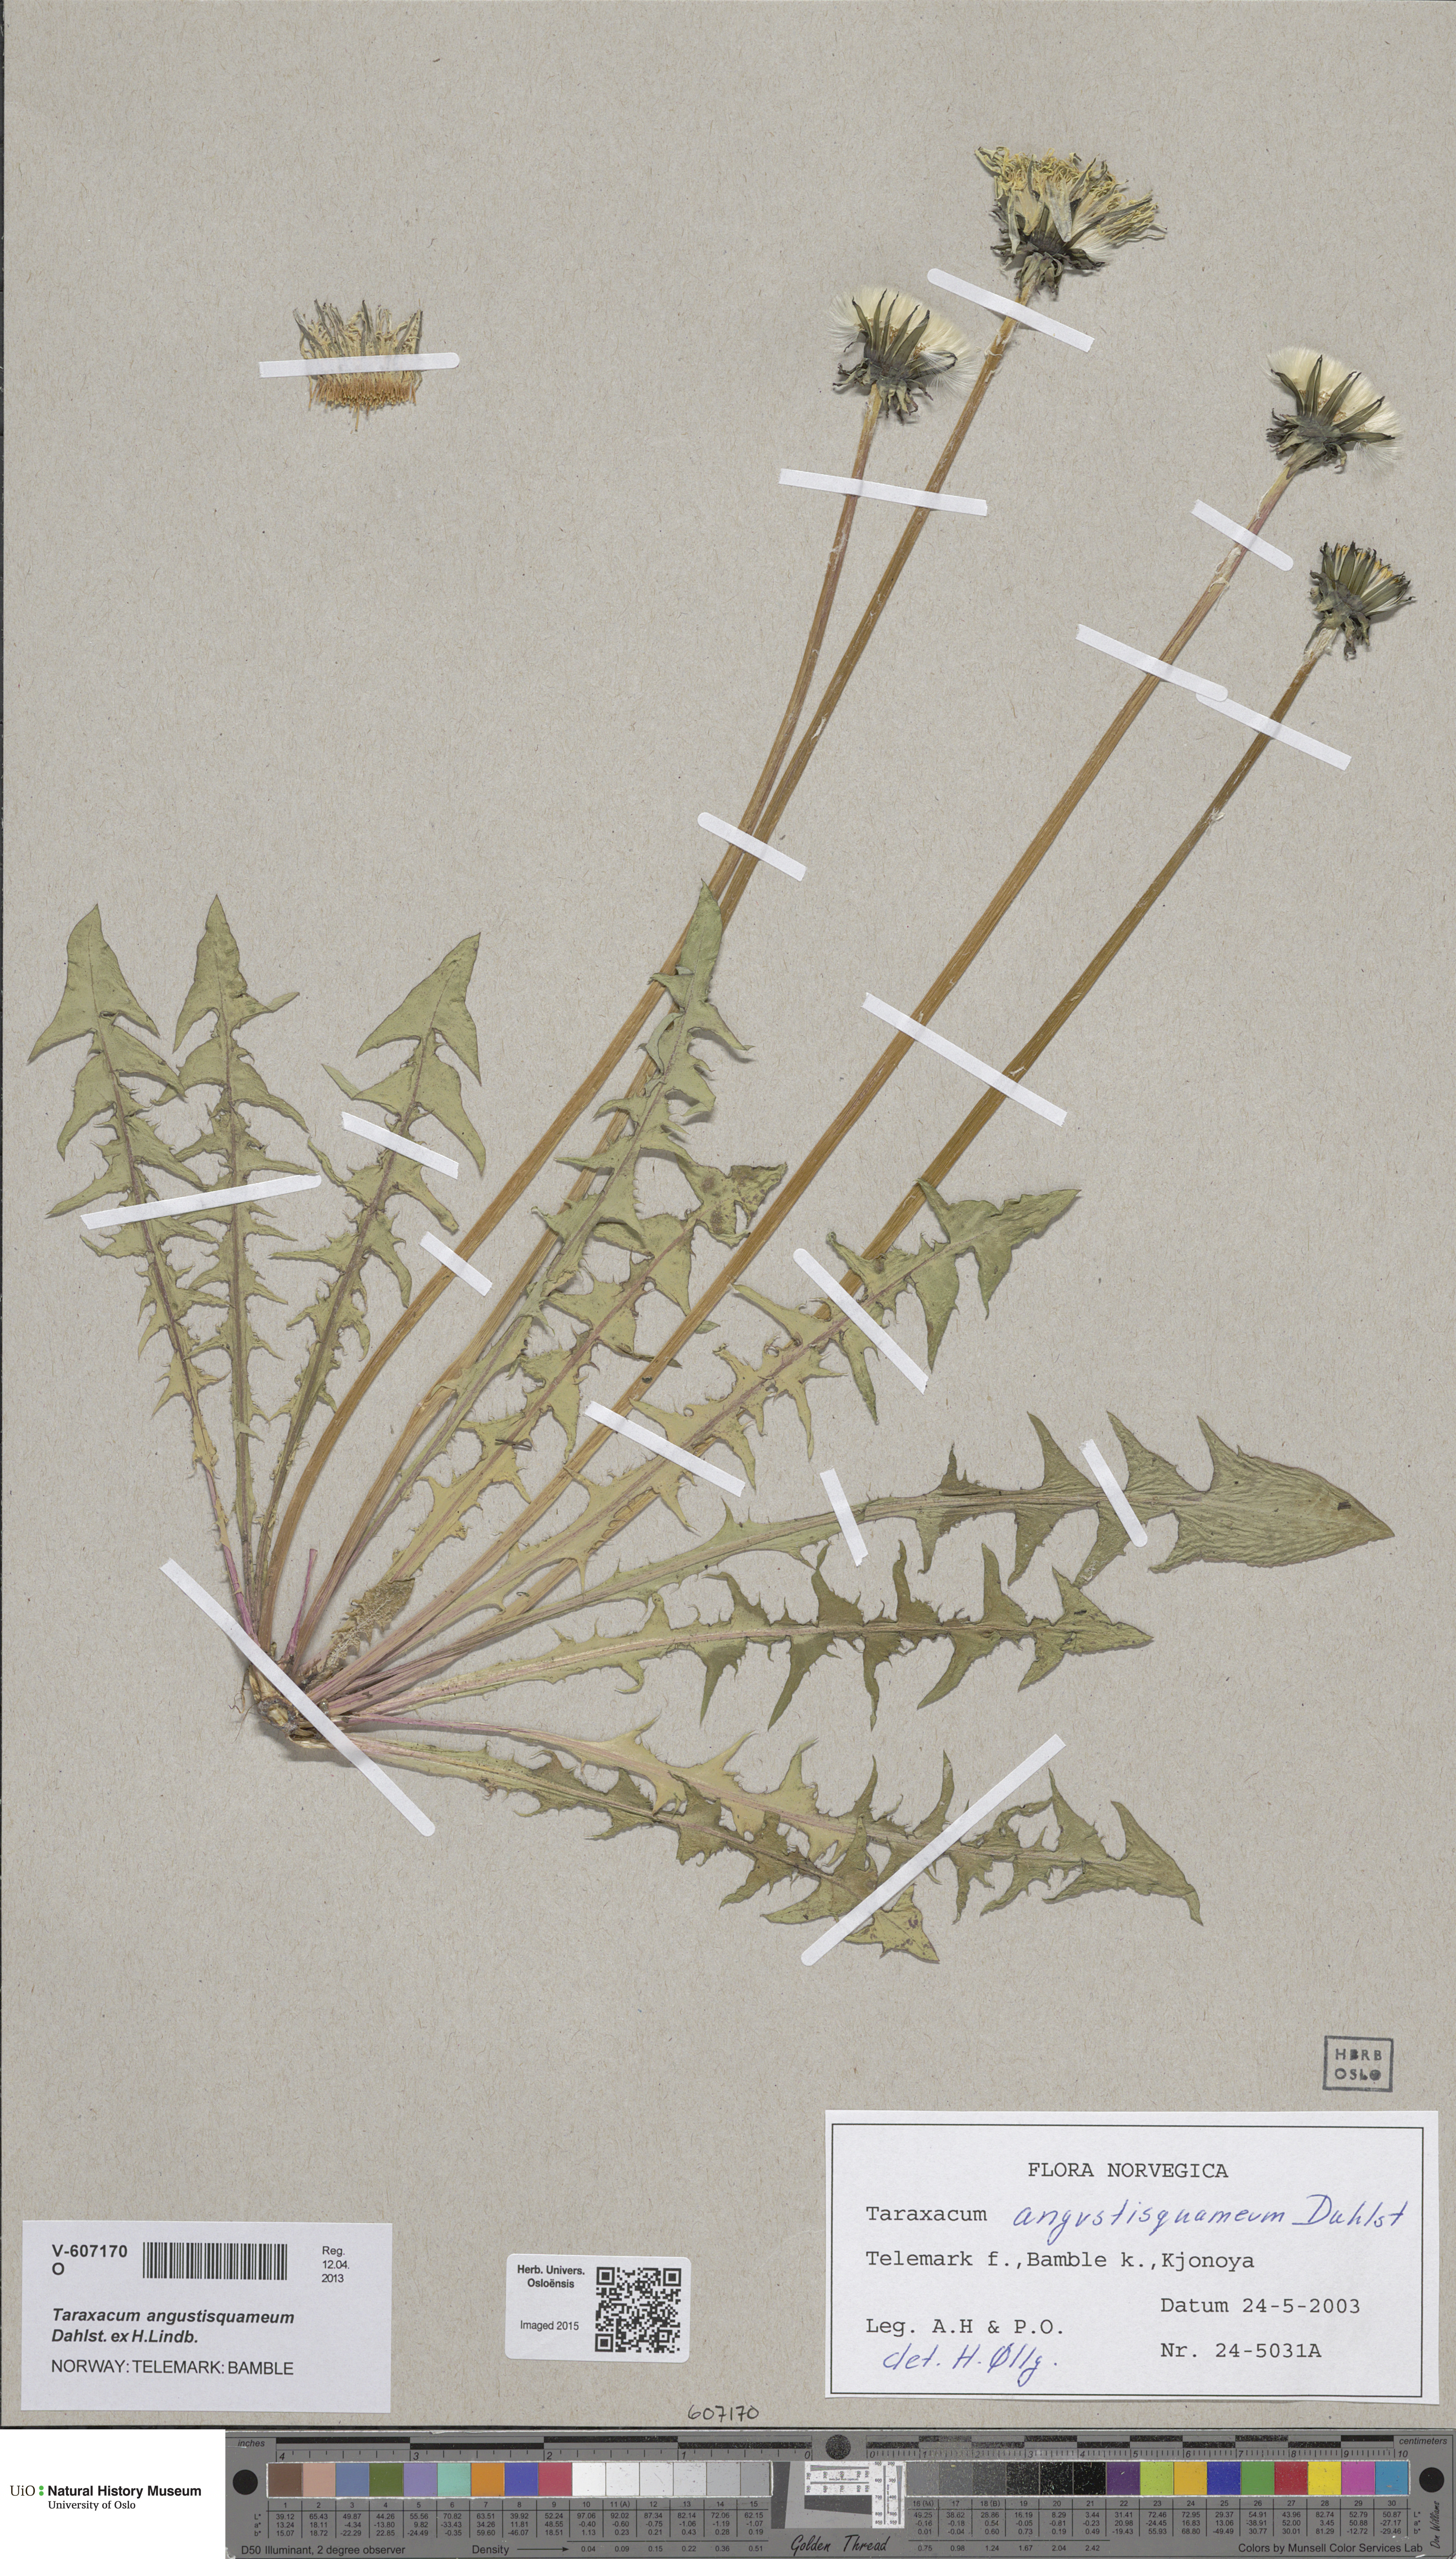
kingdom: Plantae
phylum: Tracheophyta
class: Magnoliopsida
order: Asterales
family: Asteraceae
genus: Taraxacum
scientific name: Taraxacum angustisquameum
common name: Multilobed dandelion
